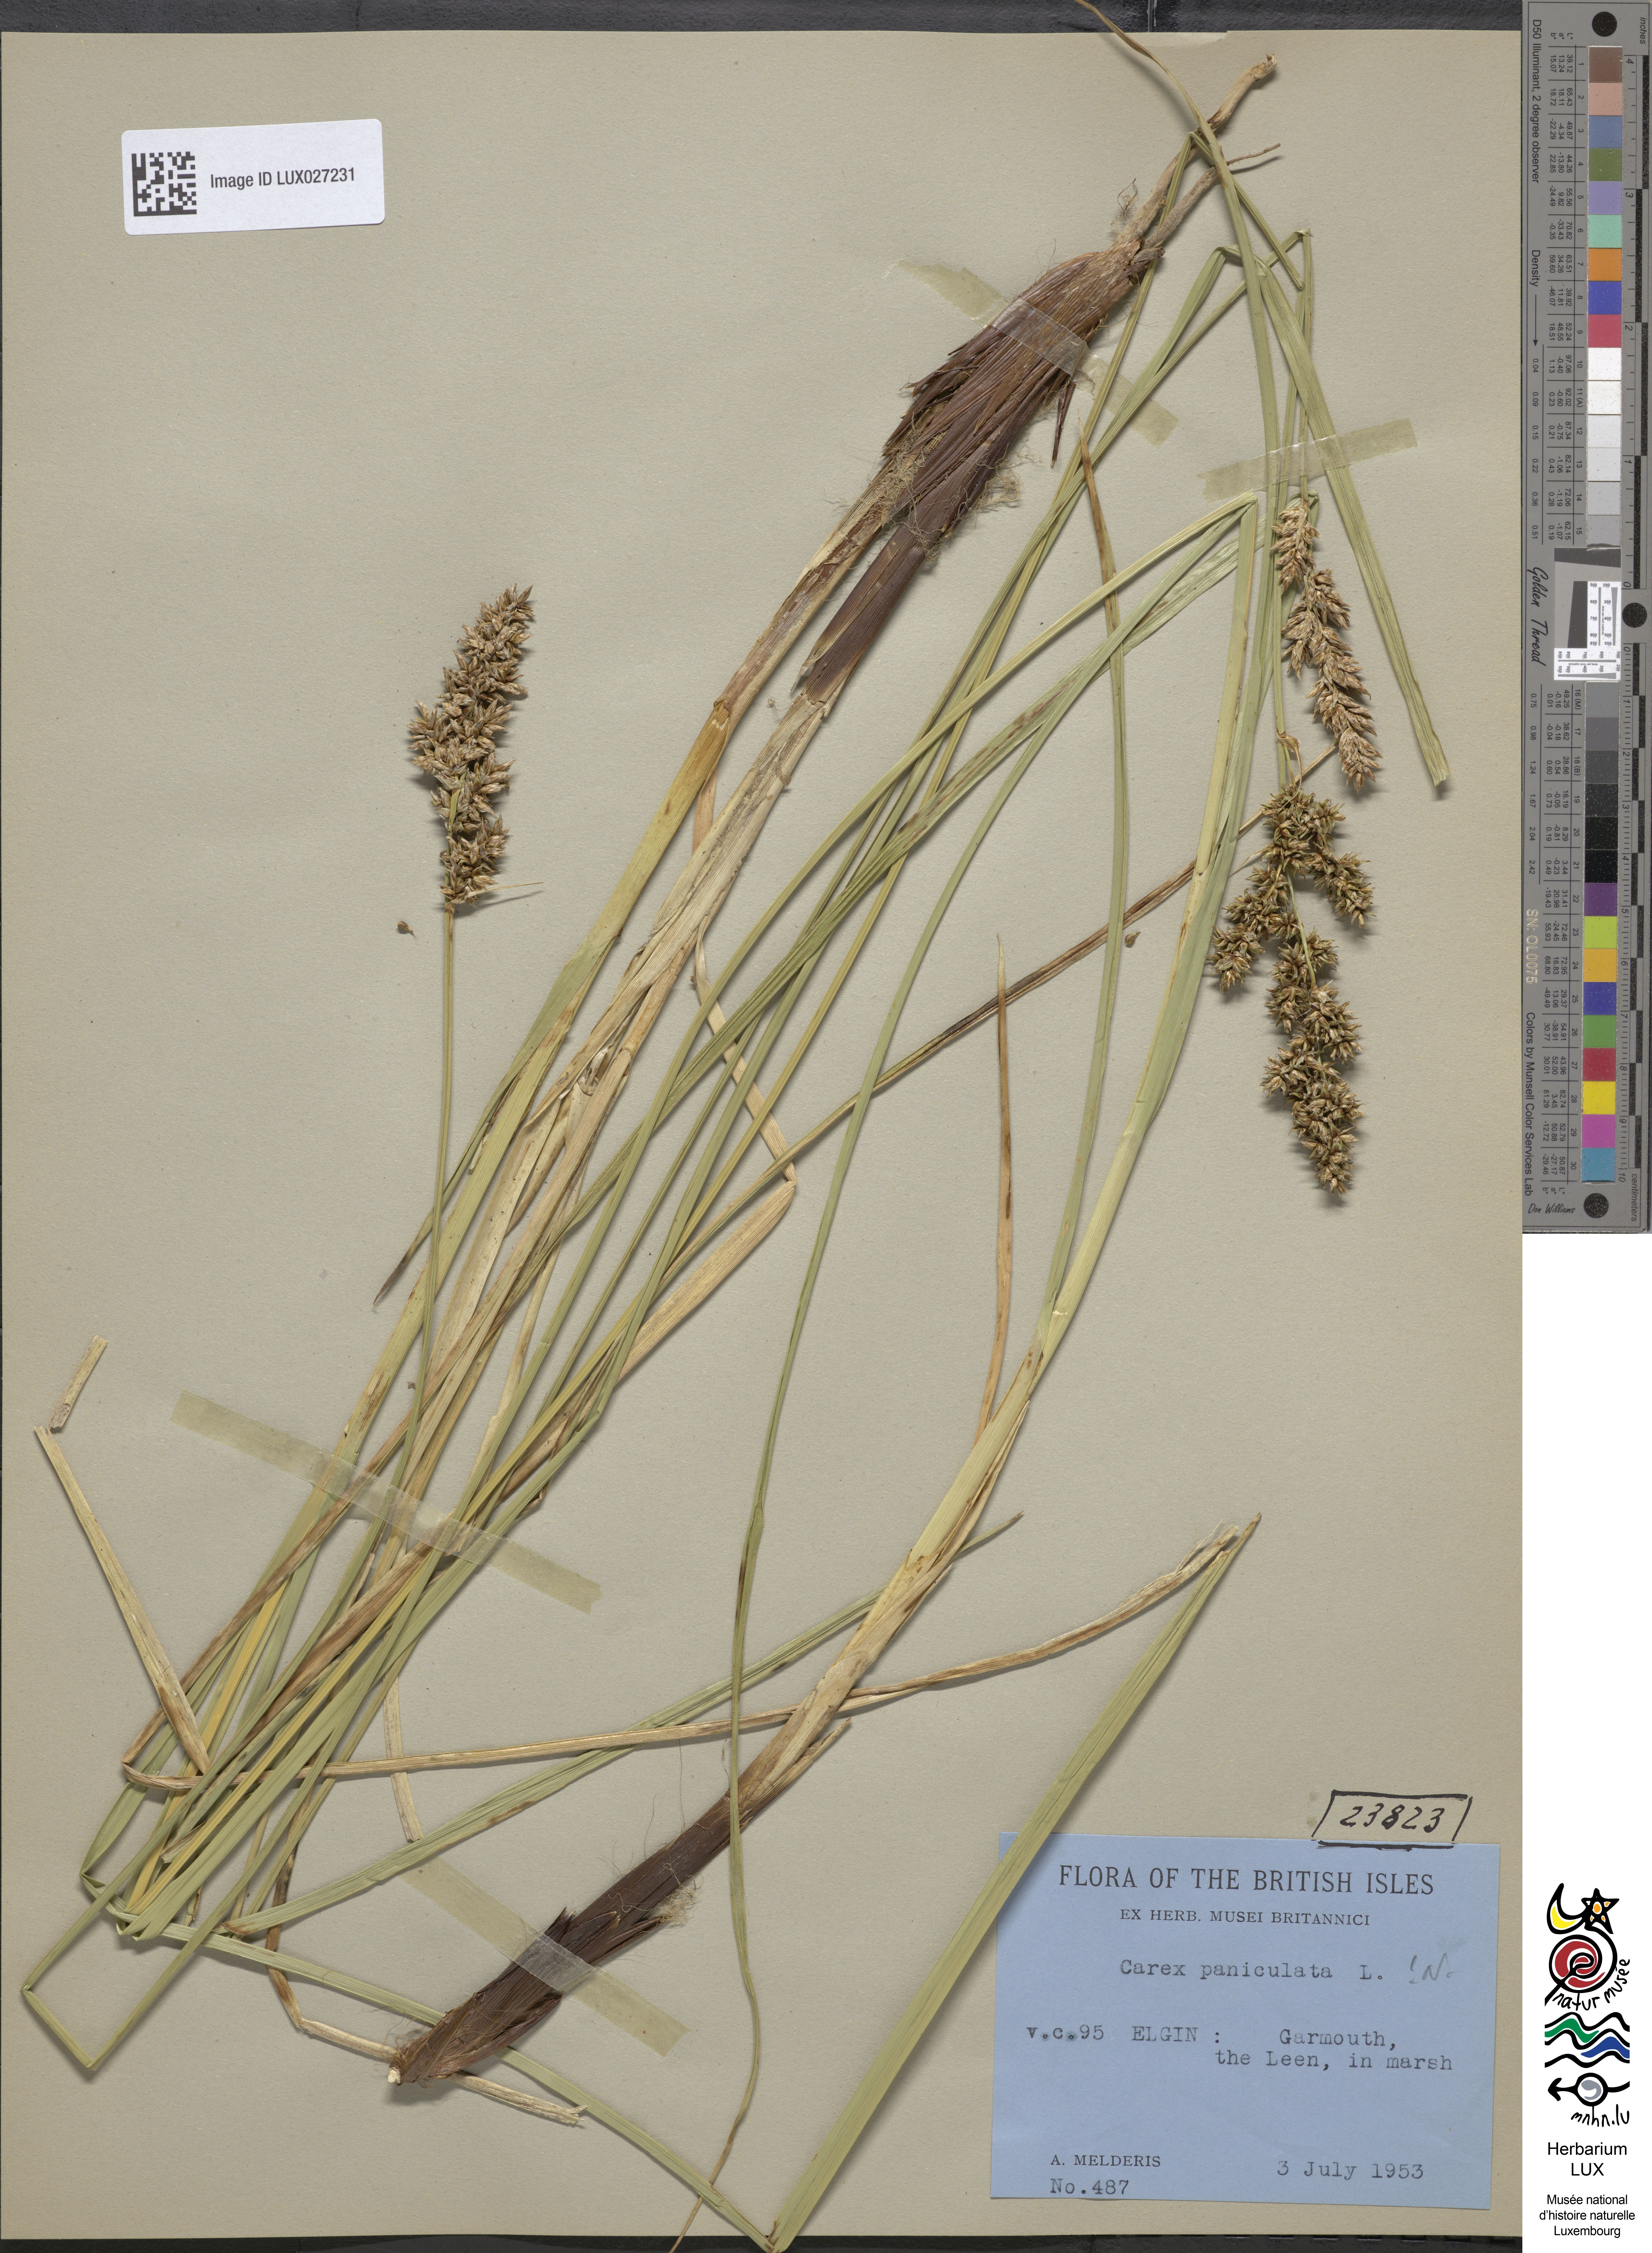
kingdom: Plantae
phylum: Tracheophyta
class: Liliopsida
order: Poales
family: Cyperaceae
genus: Carex
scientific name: Carex paniculata
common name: Greater tussock-sedge
